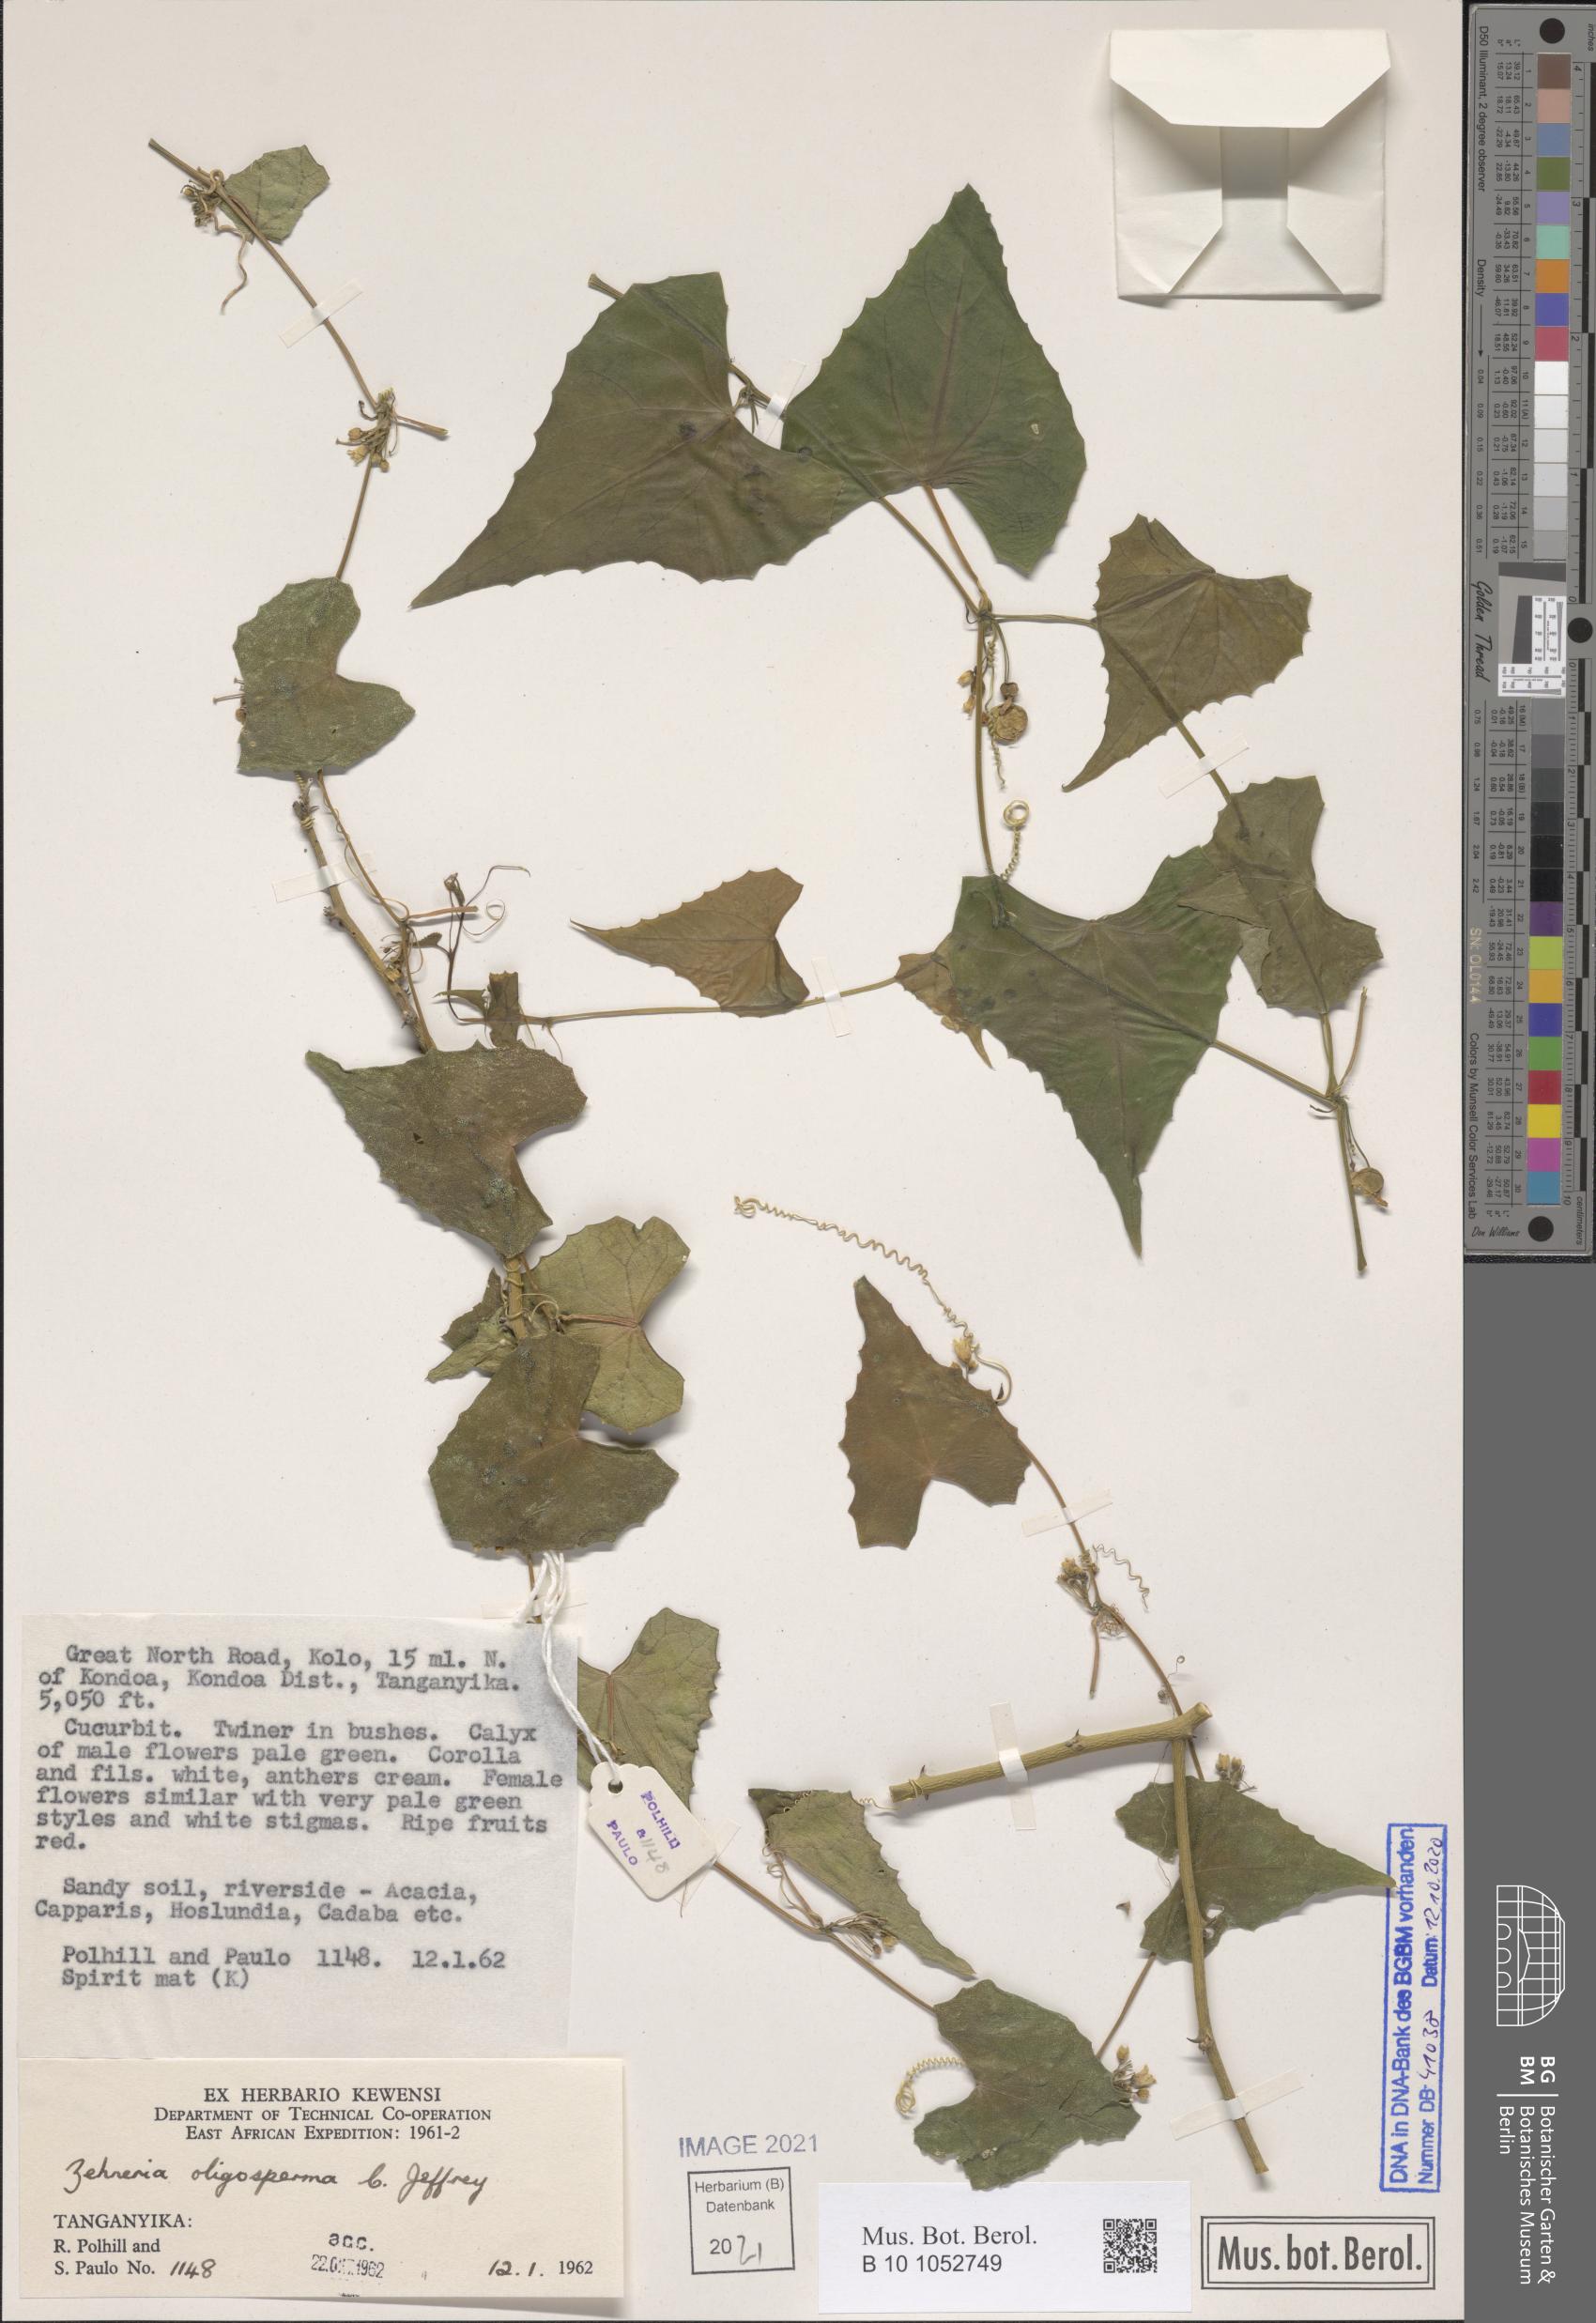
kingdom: Plantae
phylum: Tracheophyta
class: Magnoliopsida
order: Cucurbitales
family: Cucurbitaceae
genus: Zehneria
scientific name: Zehneria oligosperma
